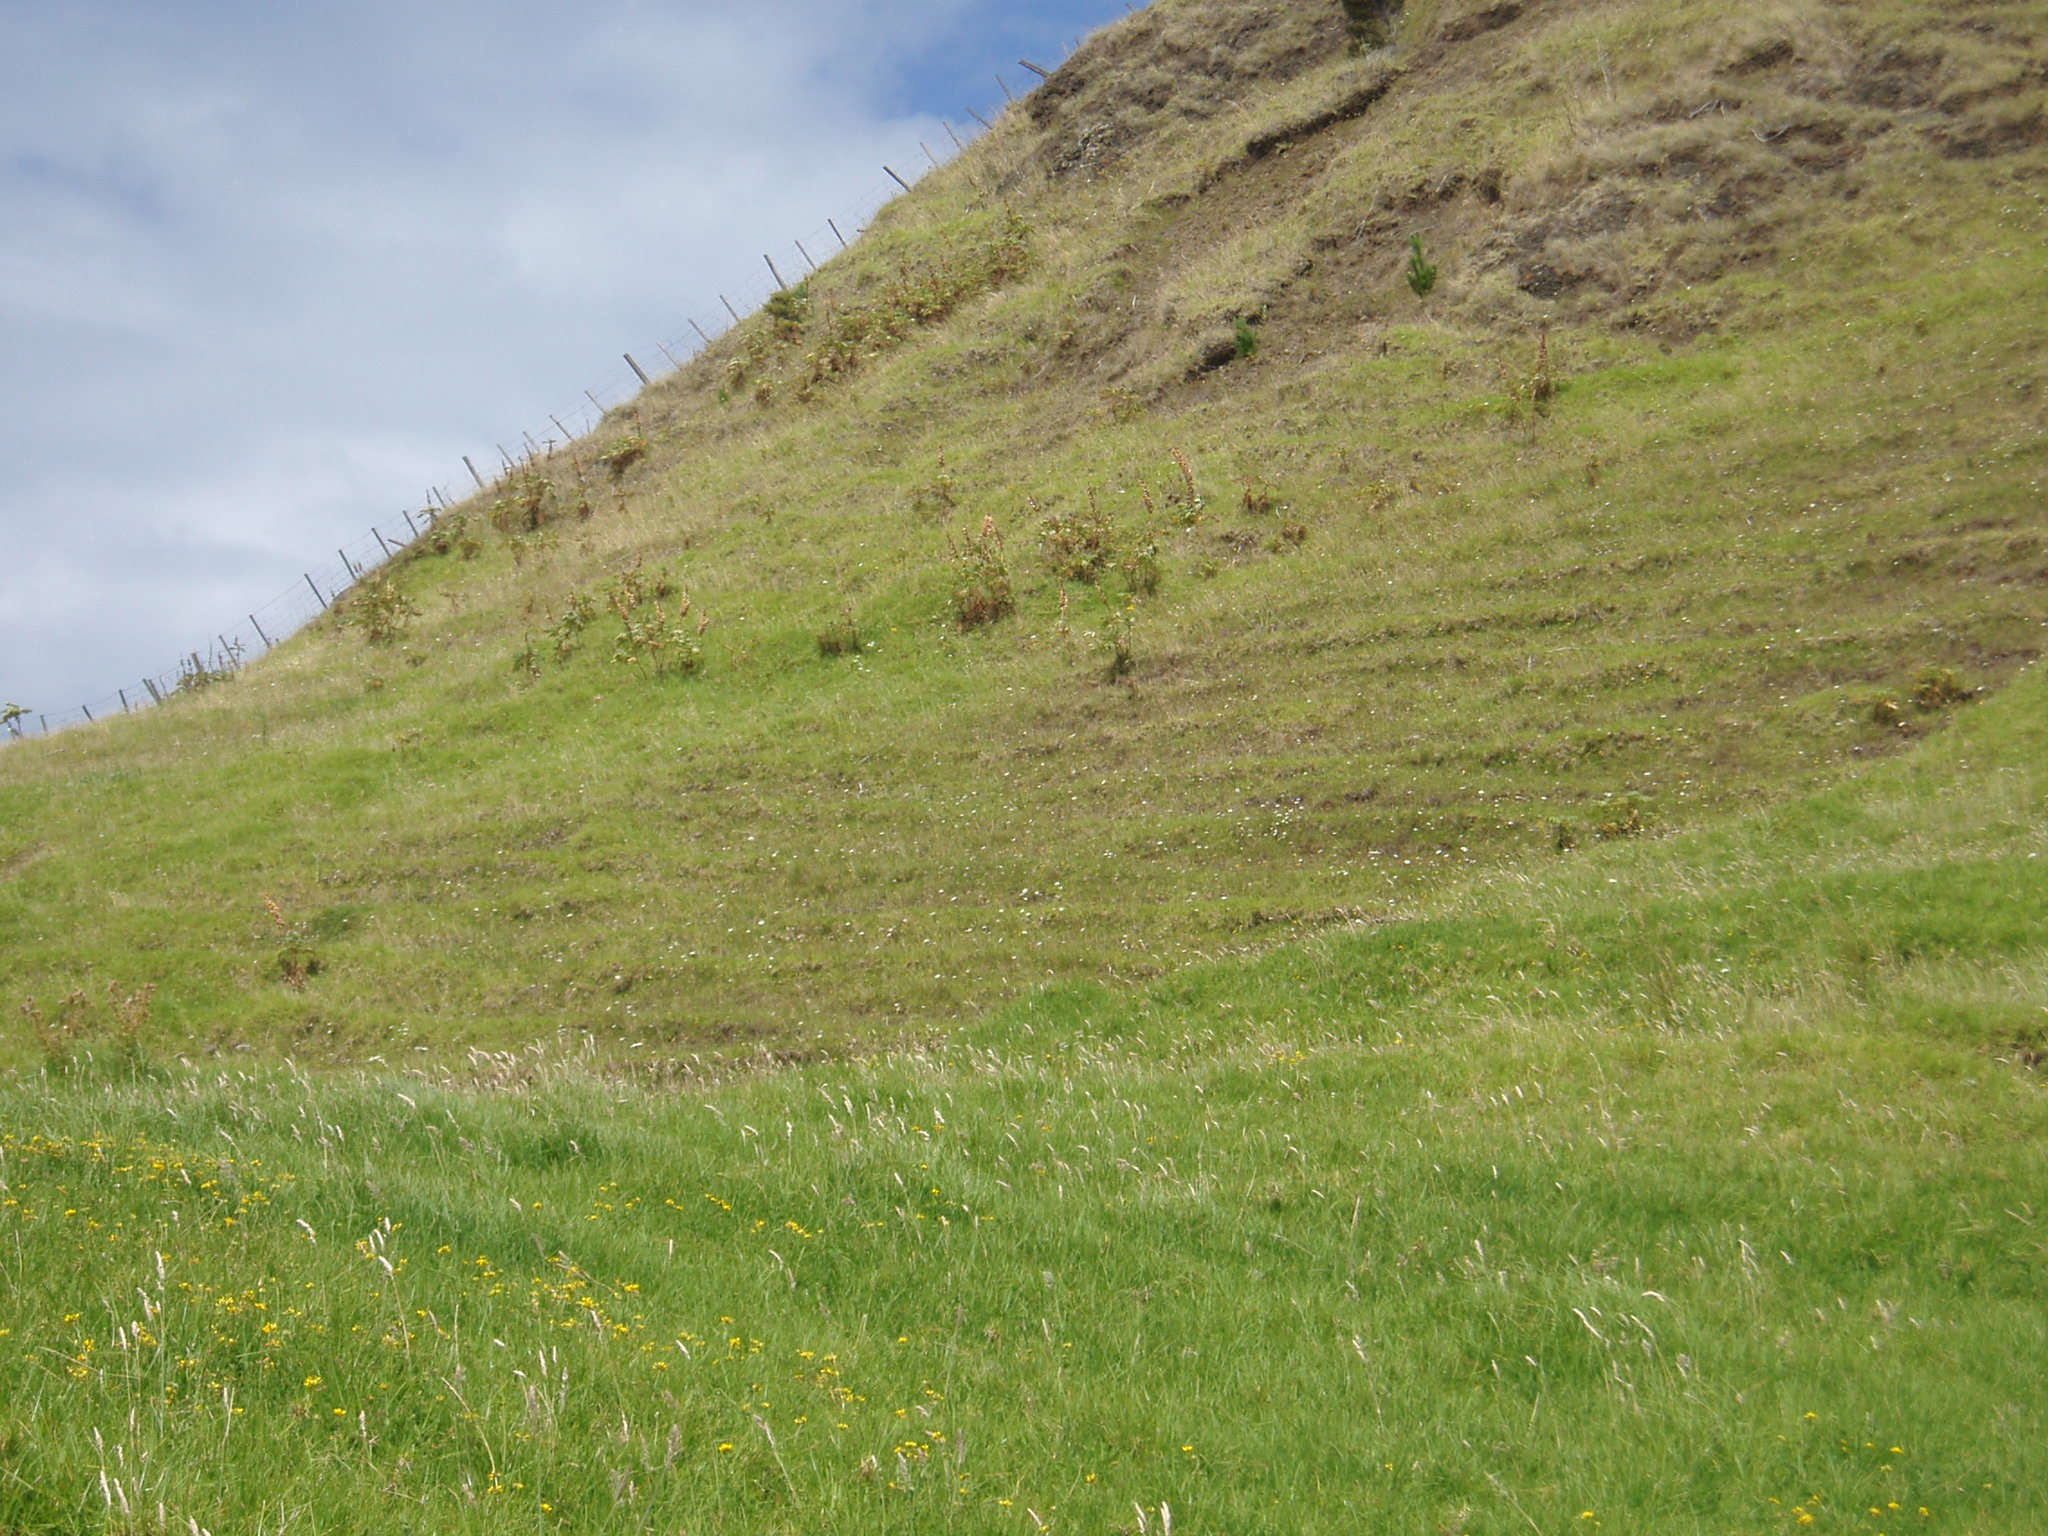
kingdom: Plantae
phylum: Tracheophyta
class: Magnoliopsida
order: Geraniales
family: Melianthaceae
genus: Melianthus
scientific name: Melianthus major
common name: Honey-flower
